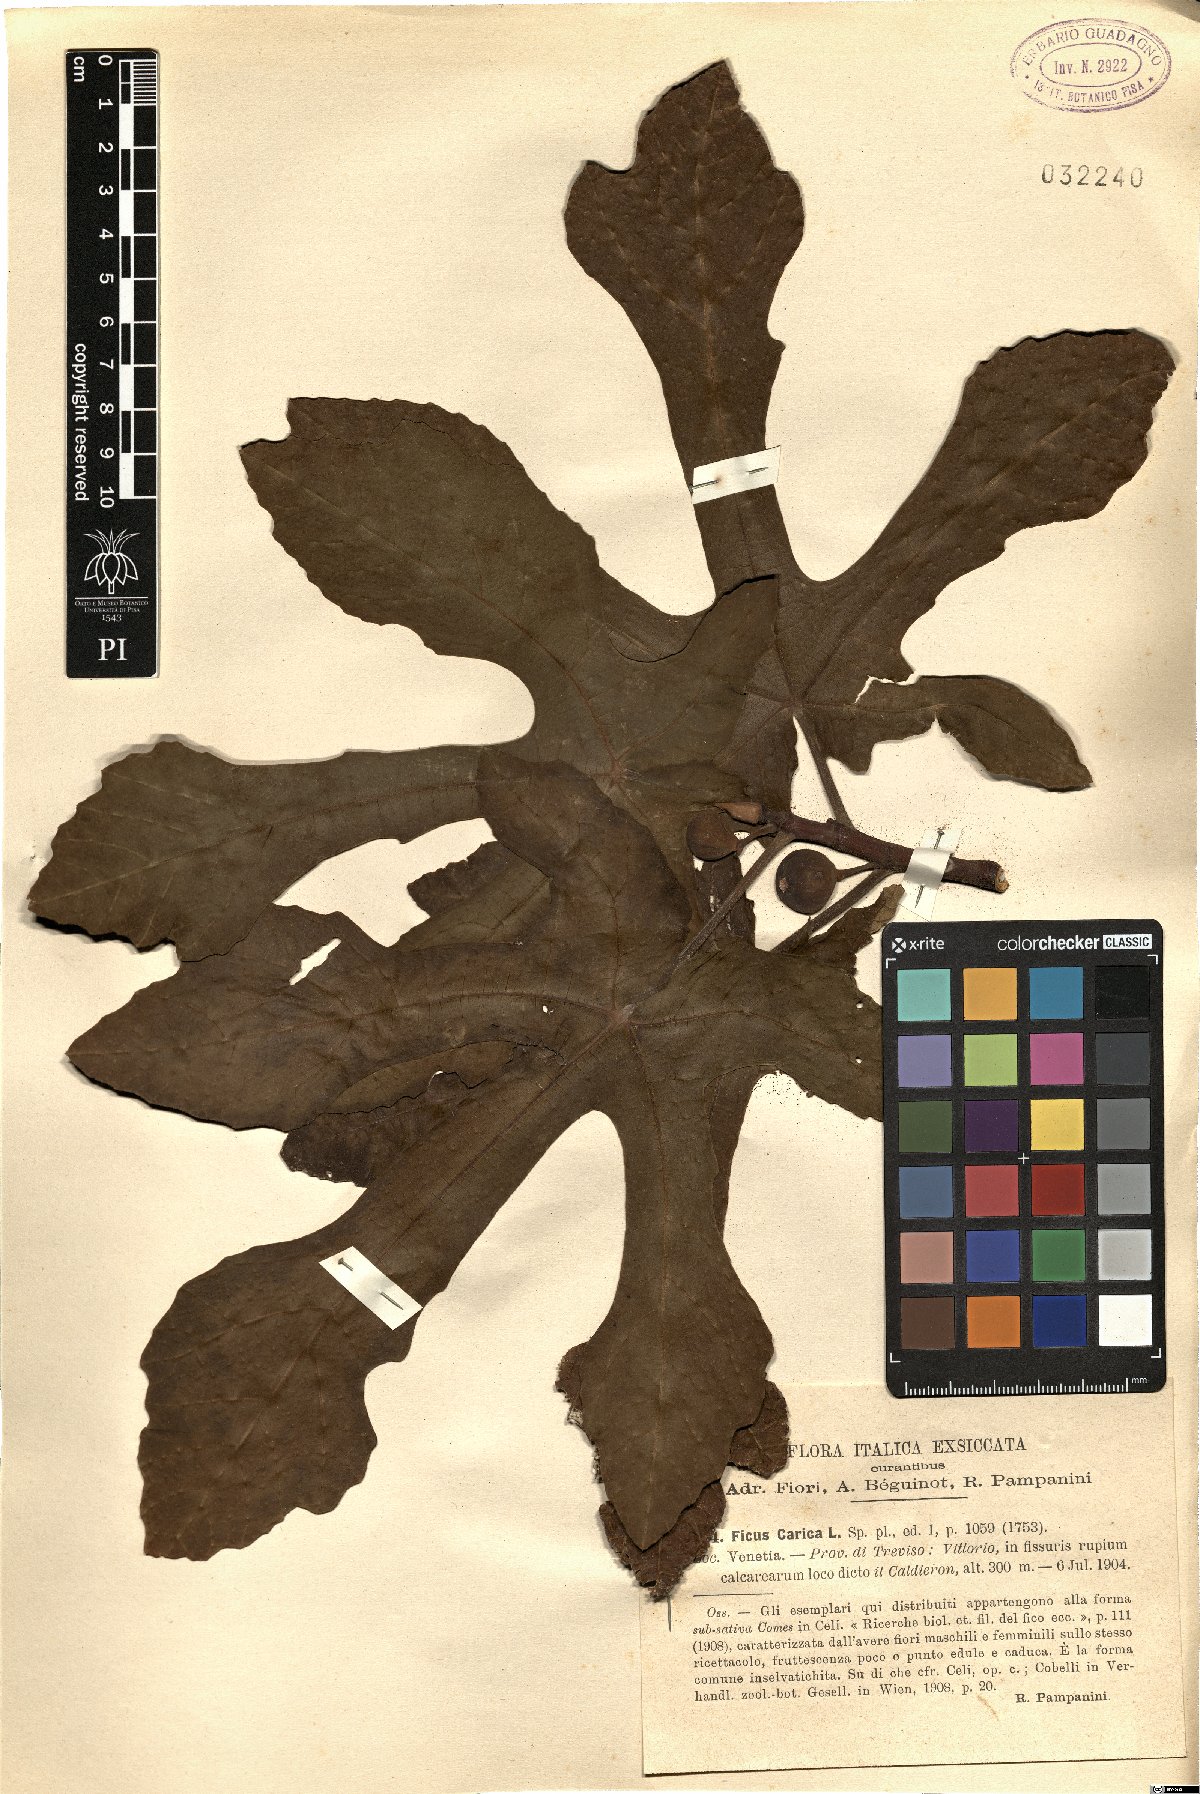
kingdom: Plantae
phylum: Tracheophyta
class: Magnoliopsida
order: Rosales
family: Moraceae
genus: Ficus
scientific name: Ficus carica
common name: Fig
